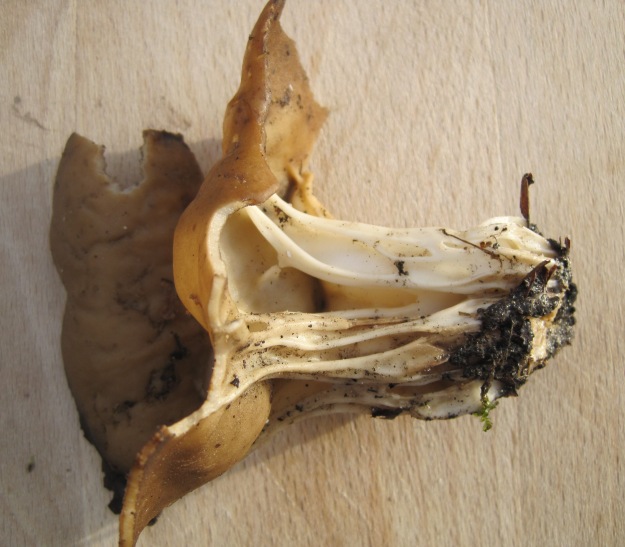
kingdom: Fungi
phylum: Ascomycota
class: Pezizomycetes
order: Pezizales
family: Helvellaceae
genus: Helvella
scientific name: Helvella acetabulum
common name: pokal-foldhat
